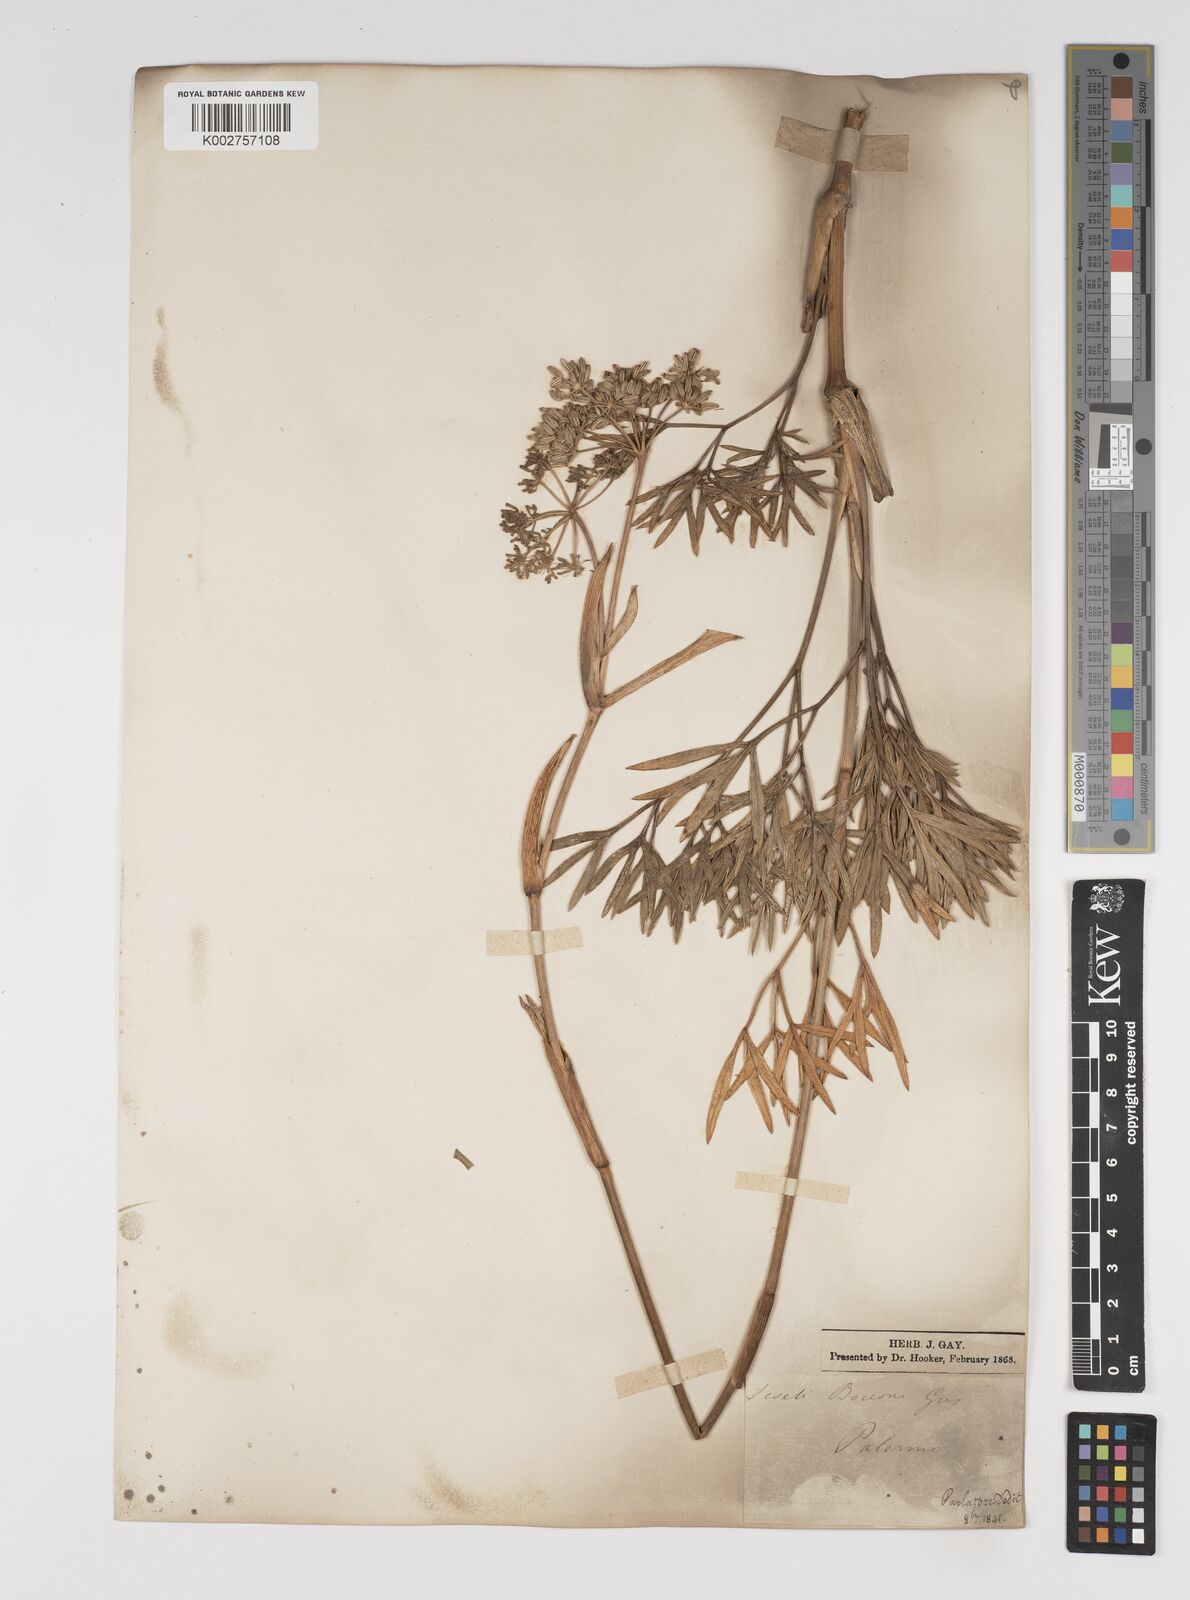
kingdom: Plantae
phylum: Tracheophyta
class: Magnoliopsida
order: Apiales
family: Apiaceae
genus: Seseli
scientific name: Seseli bocconei
